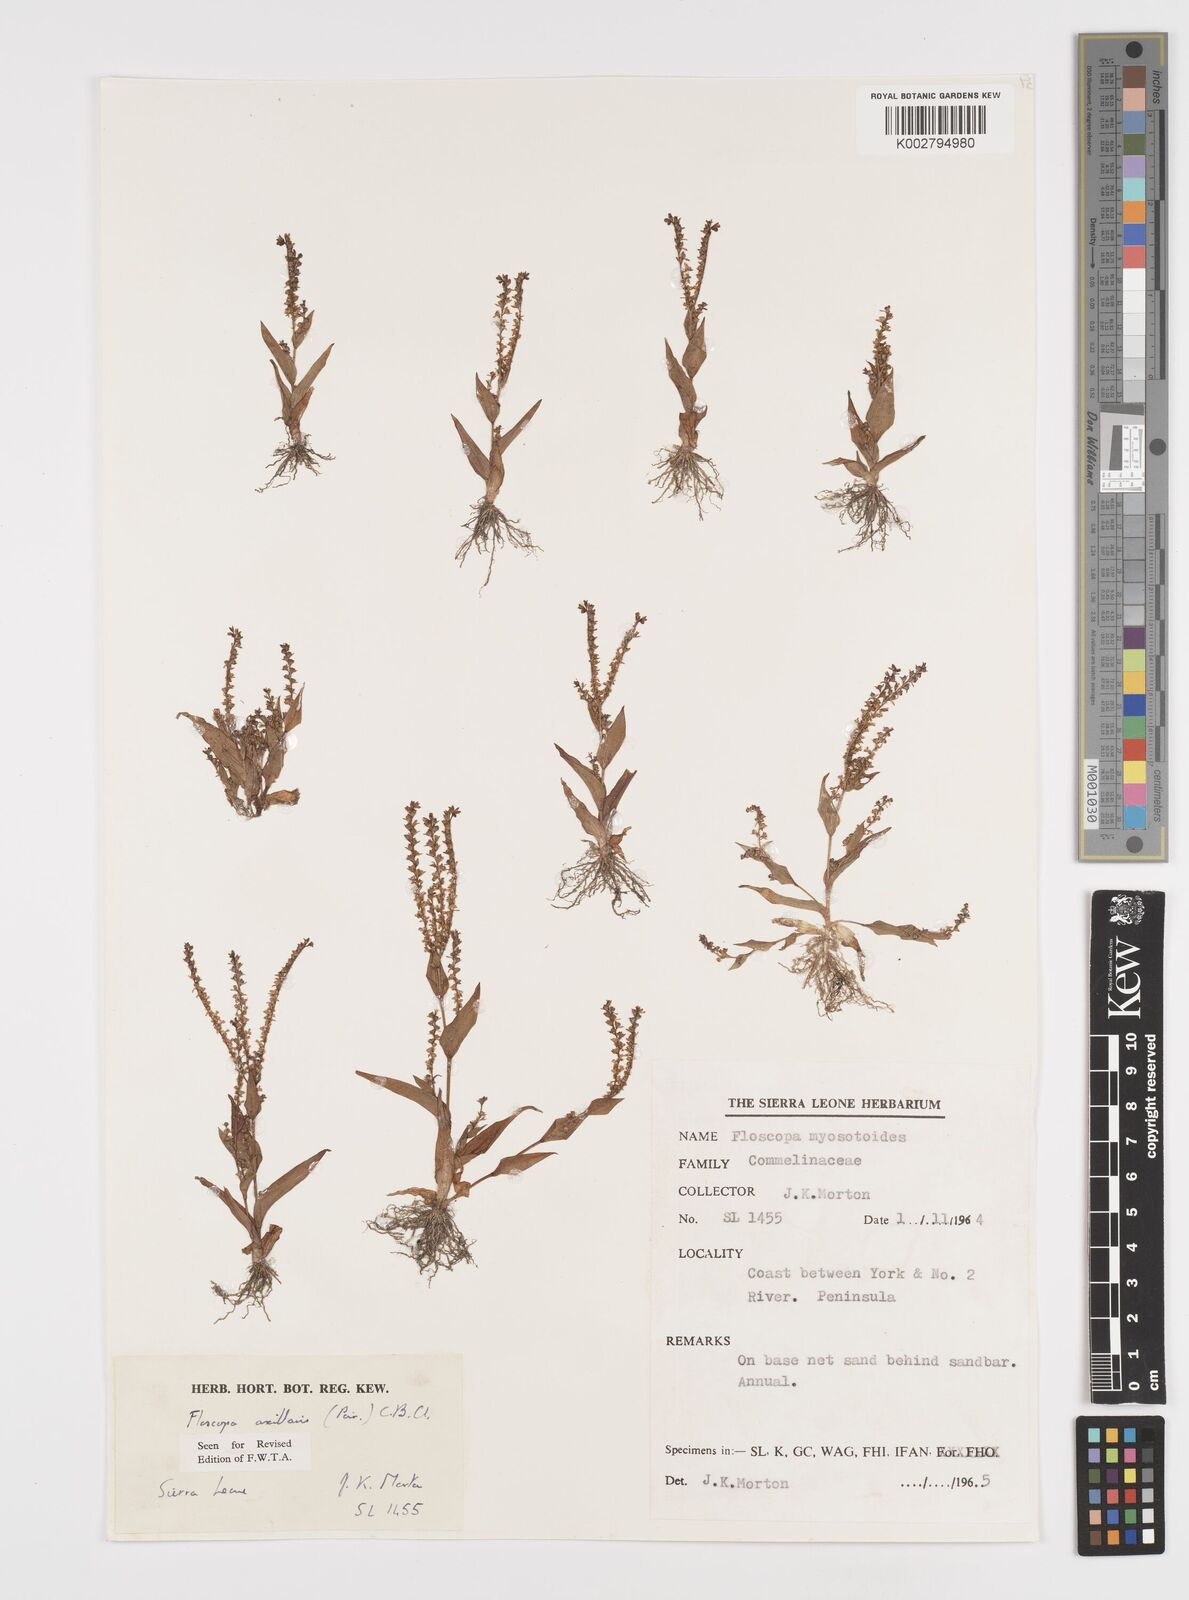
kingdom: Plantae
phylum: Tracheophyta
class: Liliopsida
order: Commelinales
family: Commelinaceae
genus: Floscopa
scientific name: Floscopa axillaris
